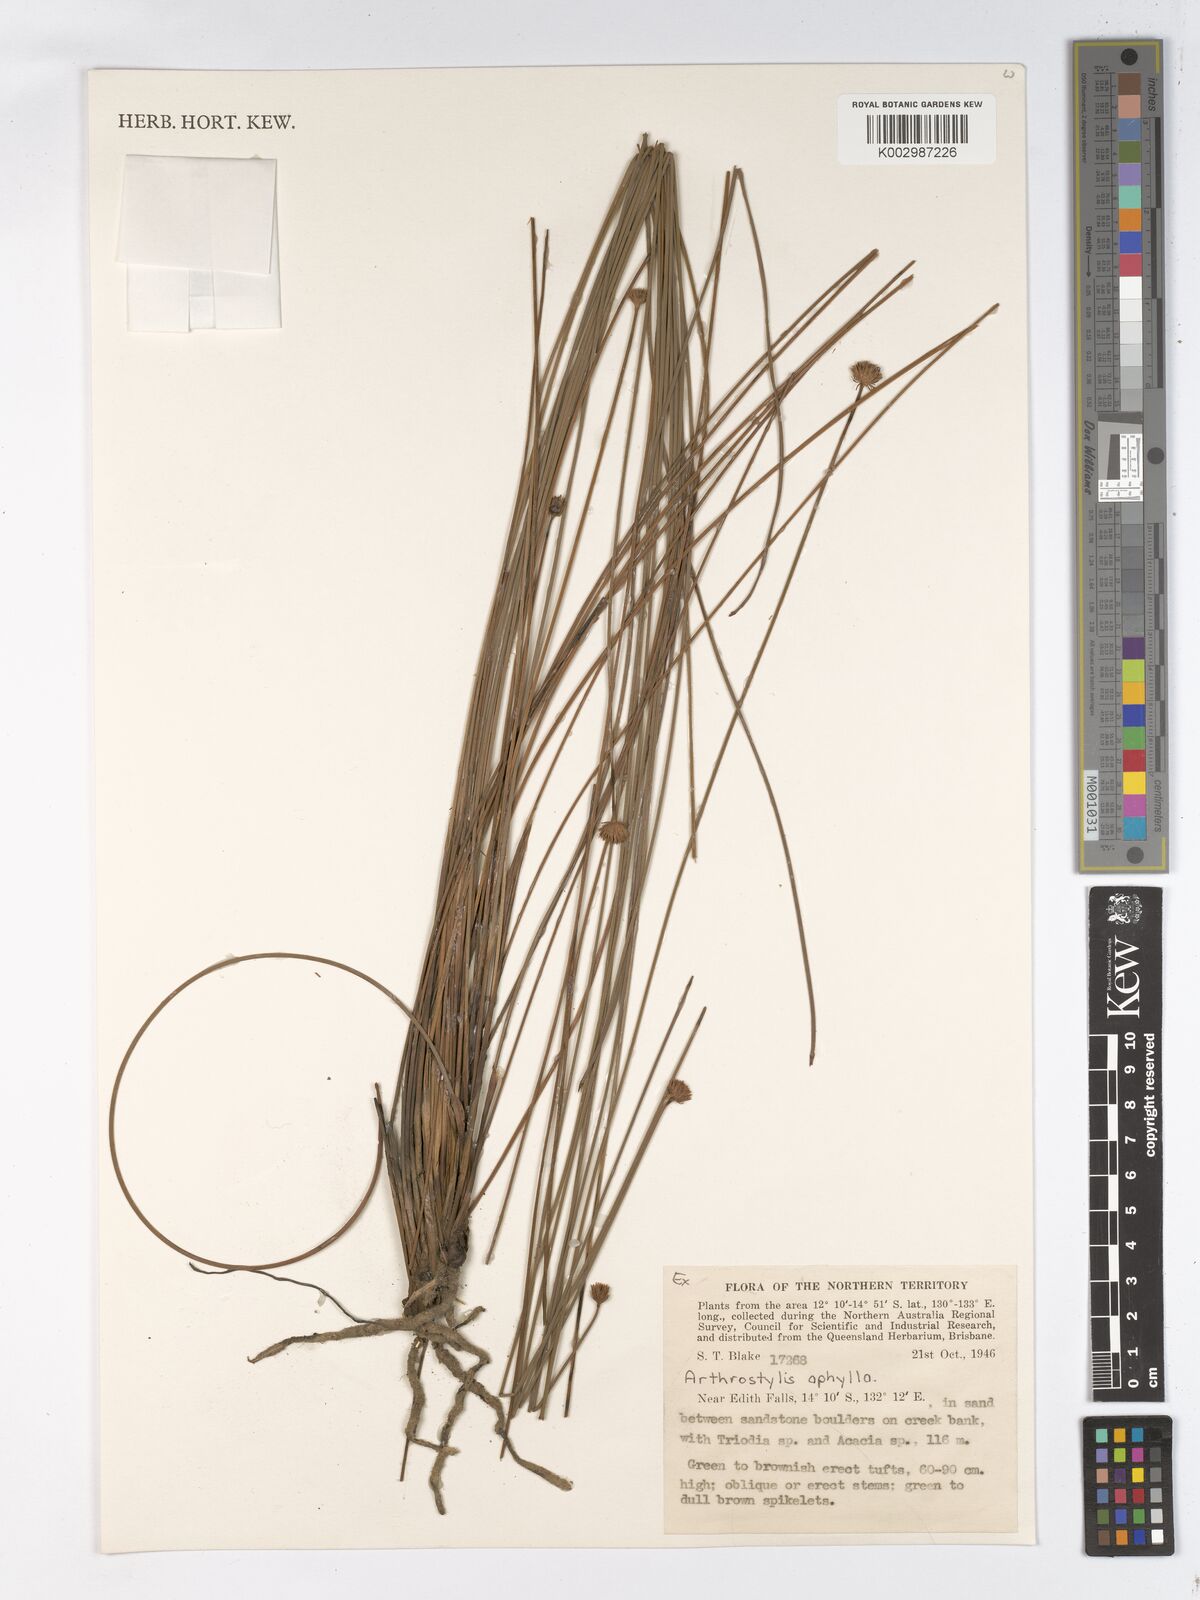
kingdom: Plantae
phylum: Tracheophyta
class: Liliopsida
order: Poales
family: Cyperaceae
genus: Arthrostylis
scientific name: Arthrostylis aphylla
